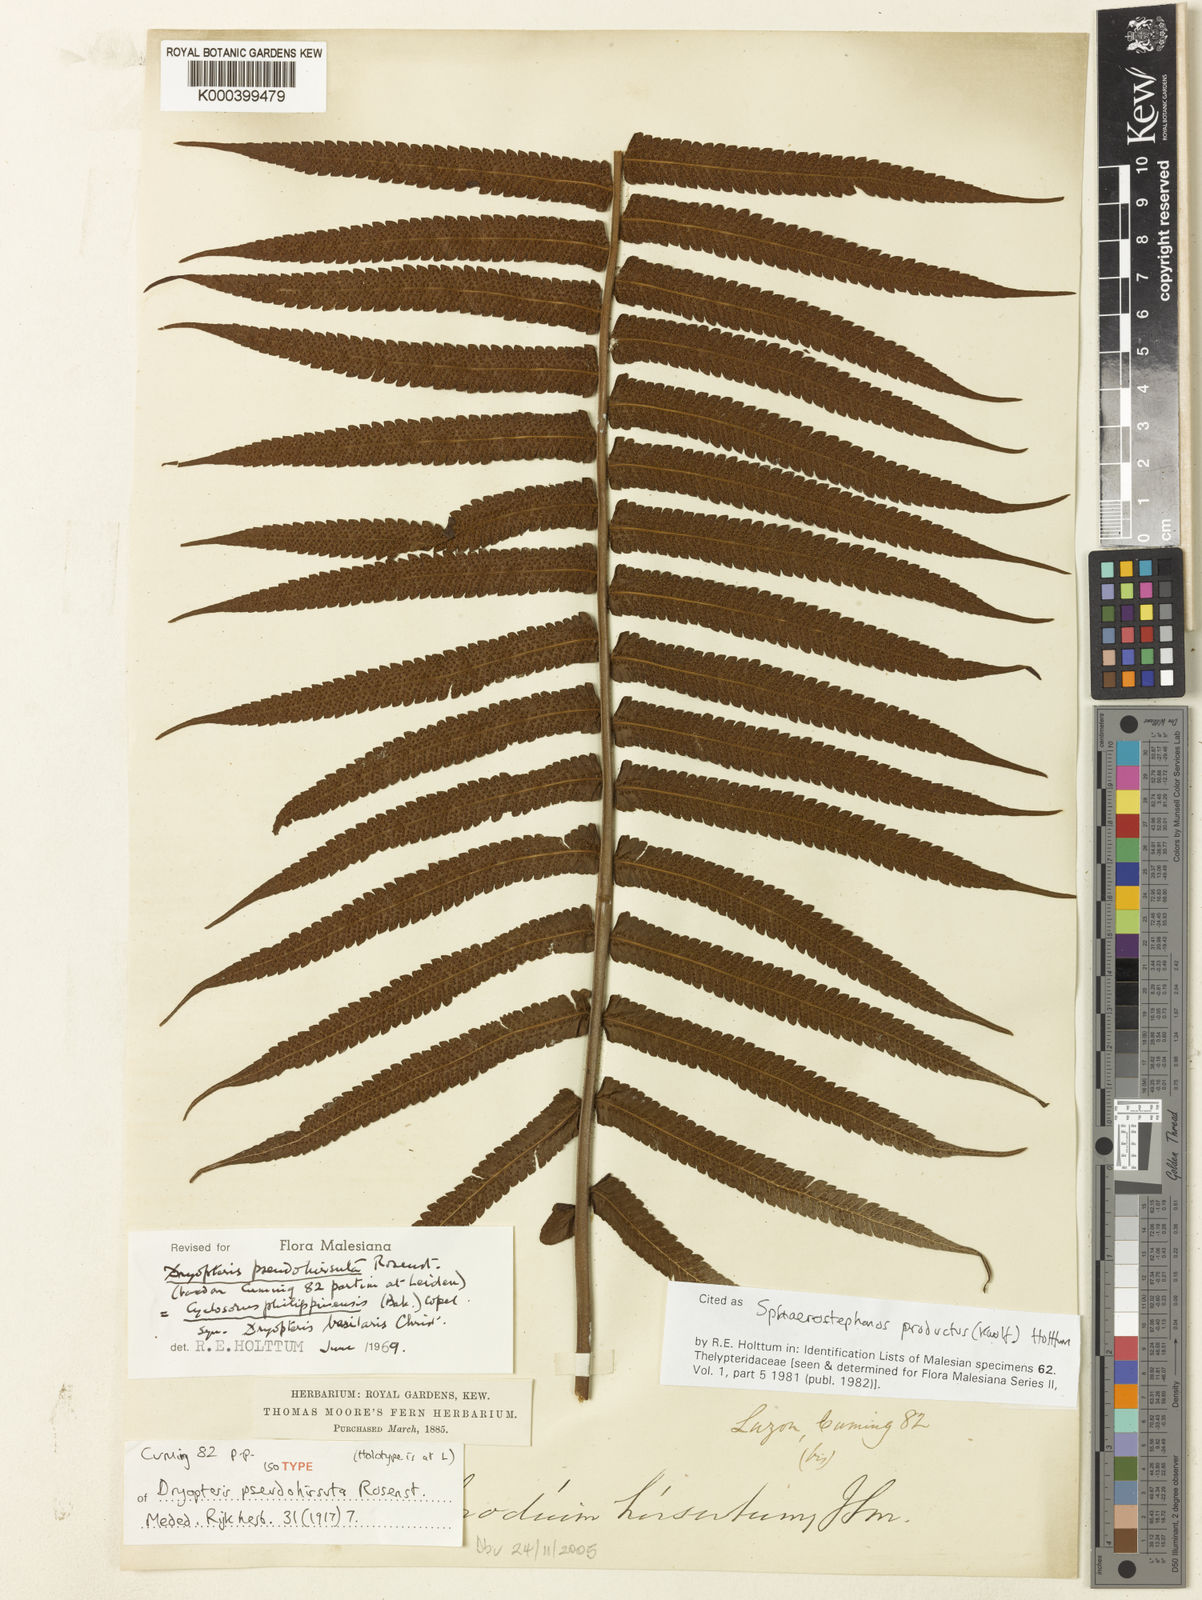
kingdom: Plantae
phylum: Tracheophyta
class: Polypodiopsida
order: Polypodiales
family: Thelypteridaceae
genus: Sphaerostephanos
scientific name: Sphaerostephanos productus
